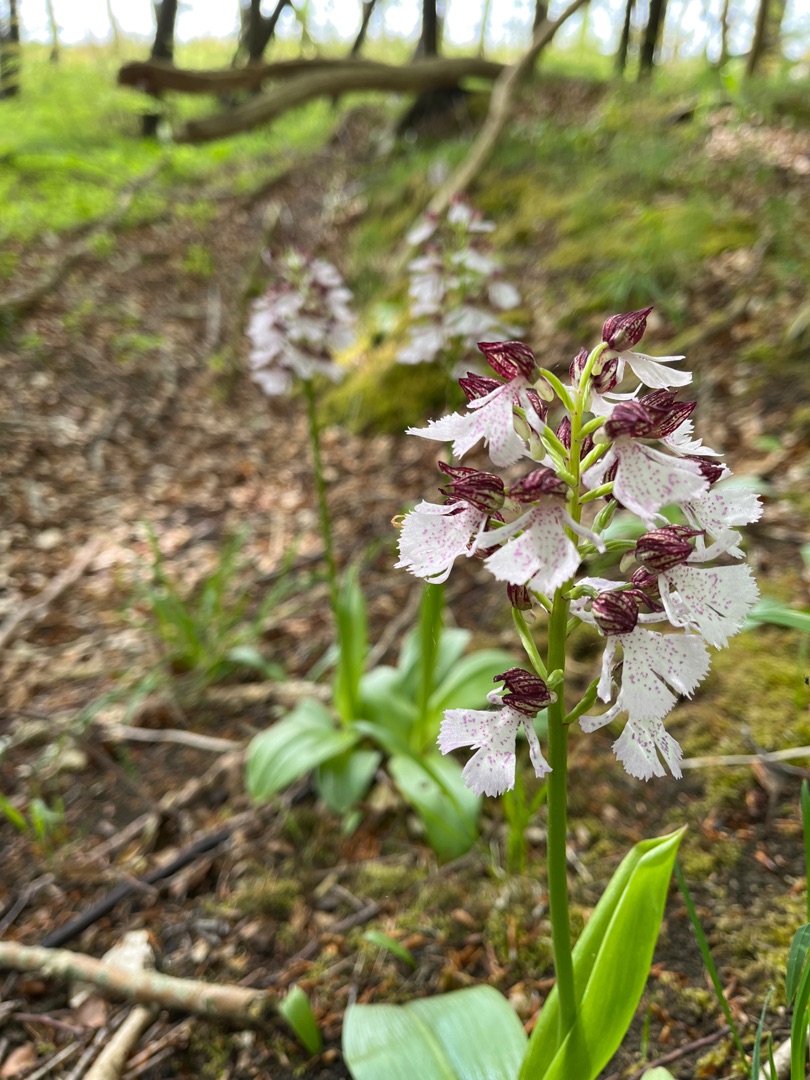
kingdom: Plantae
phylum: Tracheophyta
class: Liliopsida
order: Asparagales
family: Orchidaceae
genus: Orchis
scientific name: Orchis purpurea
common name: Stor gøgeurt
